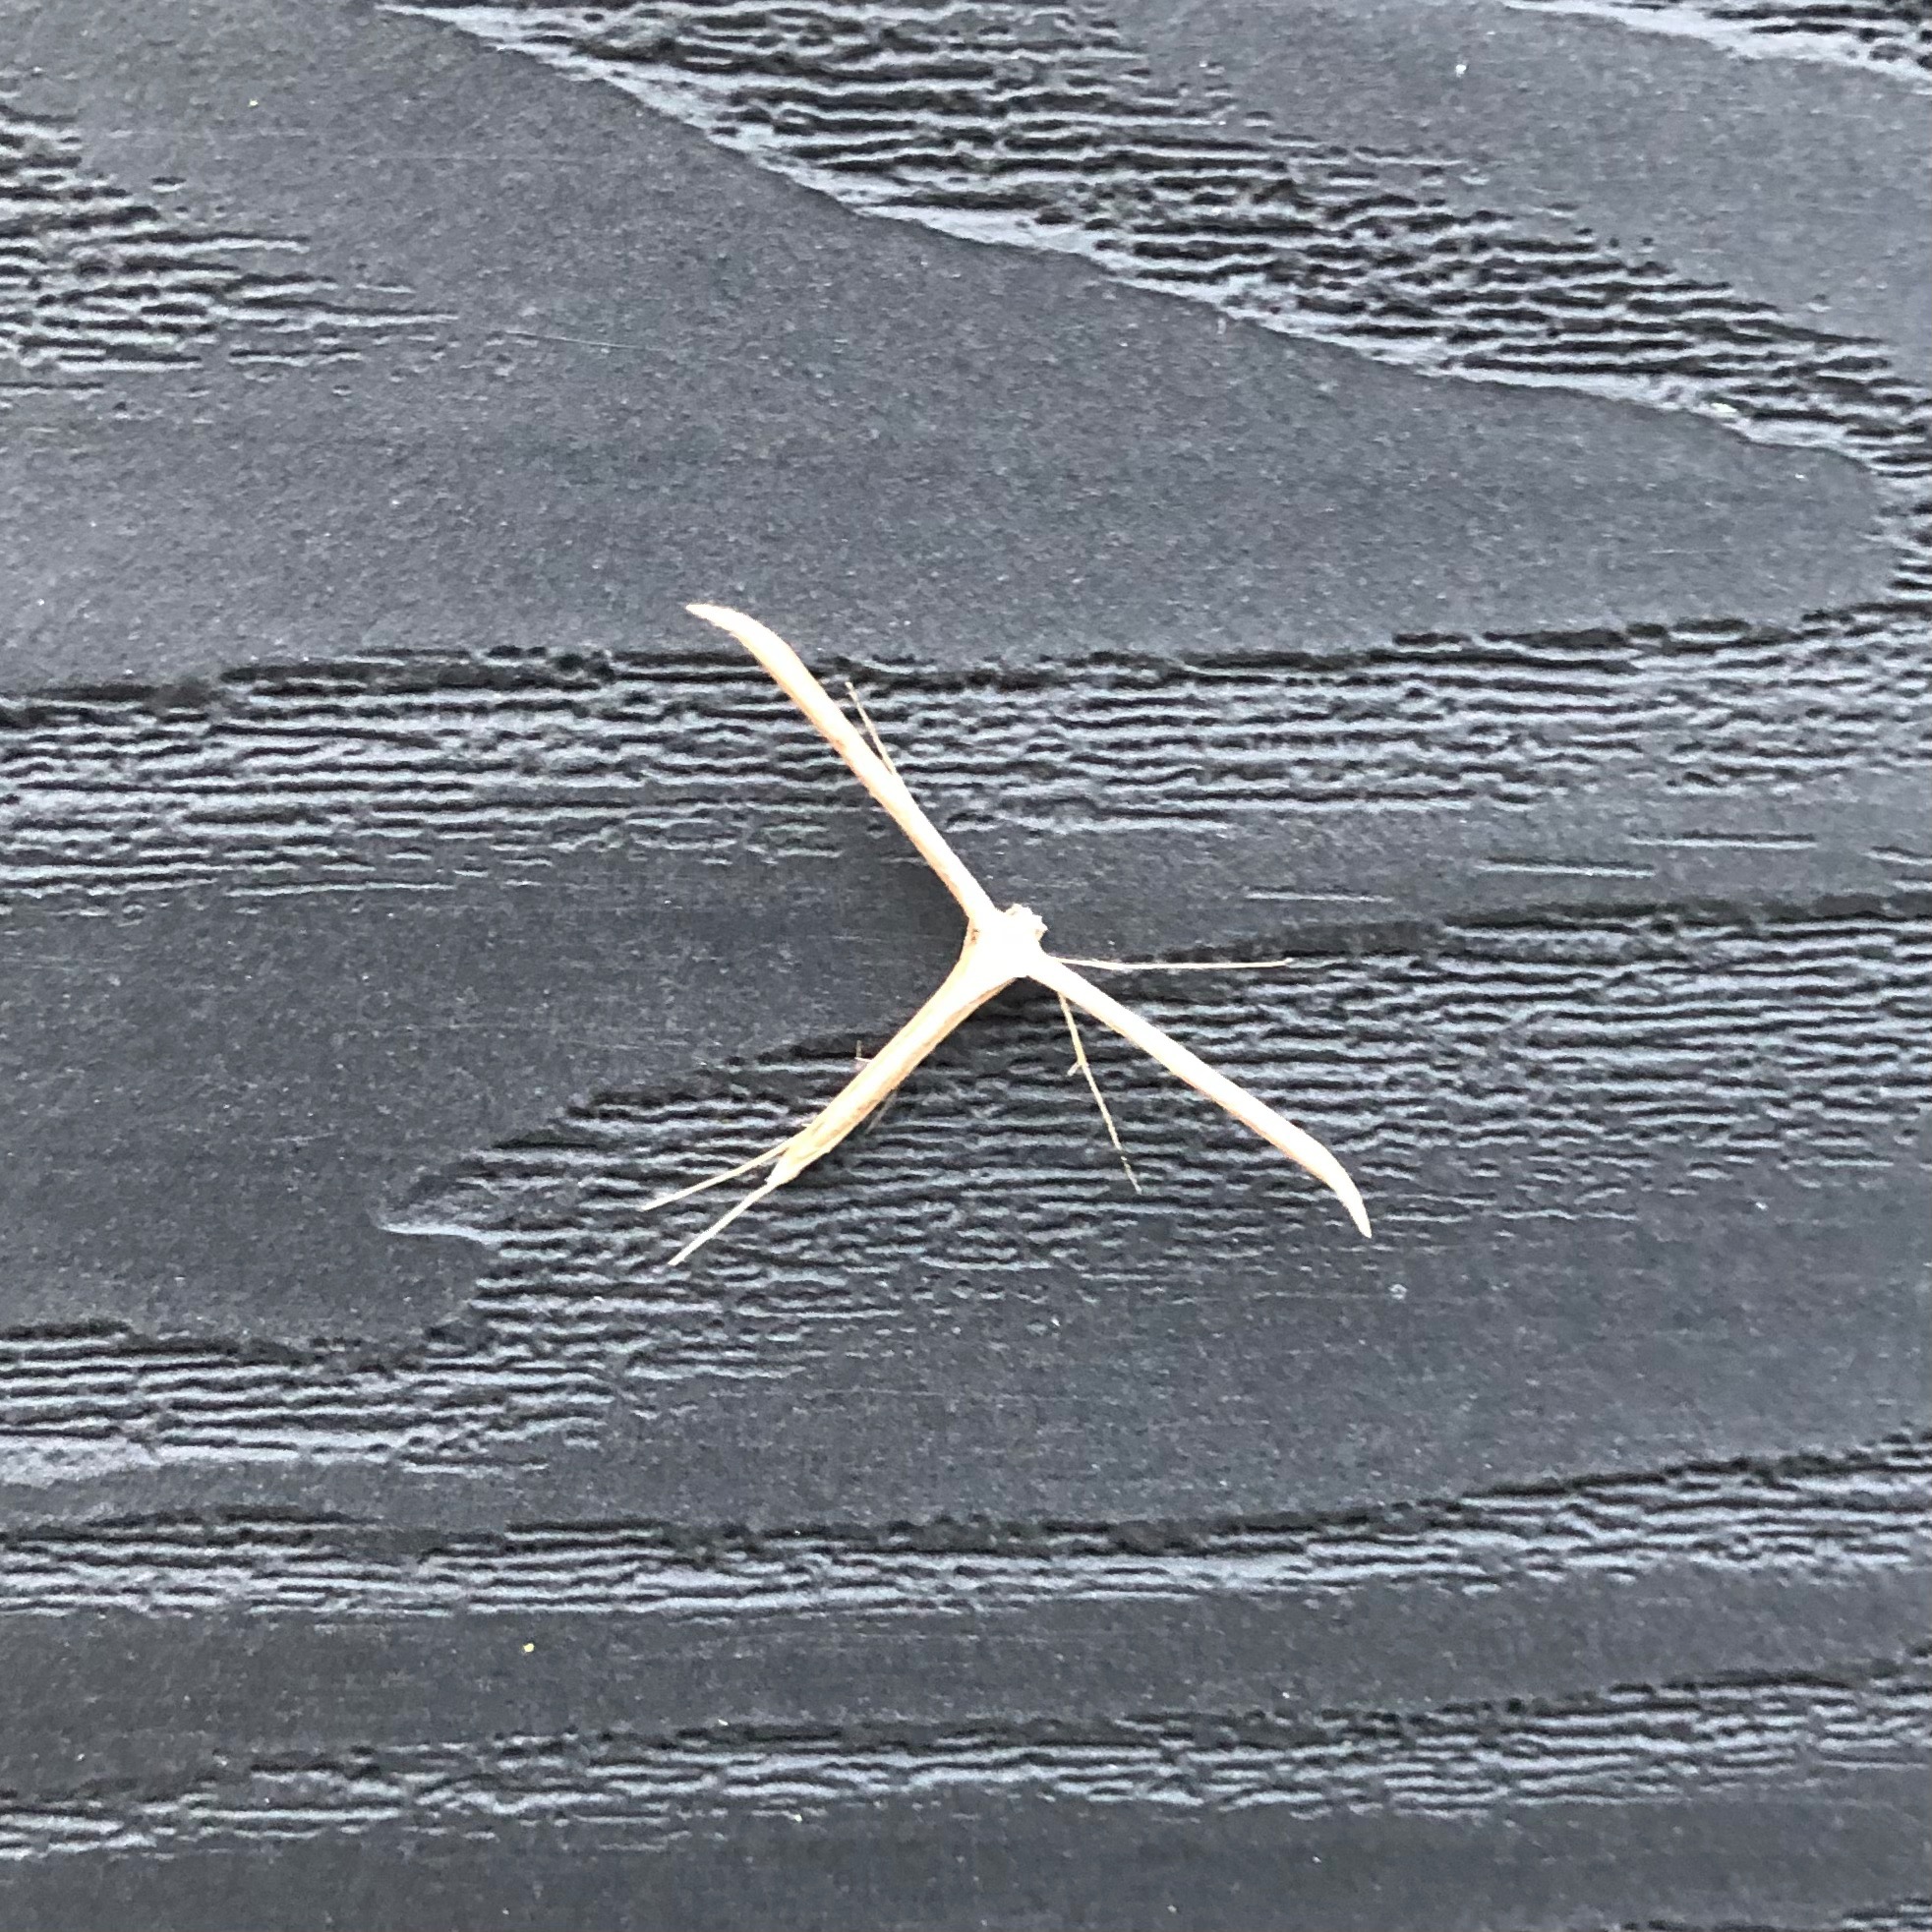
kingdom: Animalia
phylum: Arthropoda
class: Insecta
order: Lepidoptera
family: Pterophoridae
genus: Emmelina
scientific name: Emmelina monodactyla
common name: Snerlefjermøl
